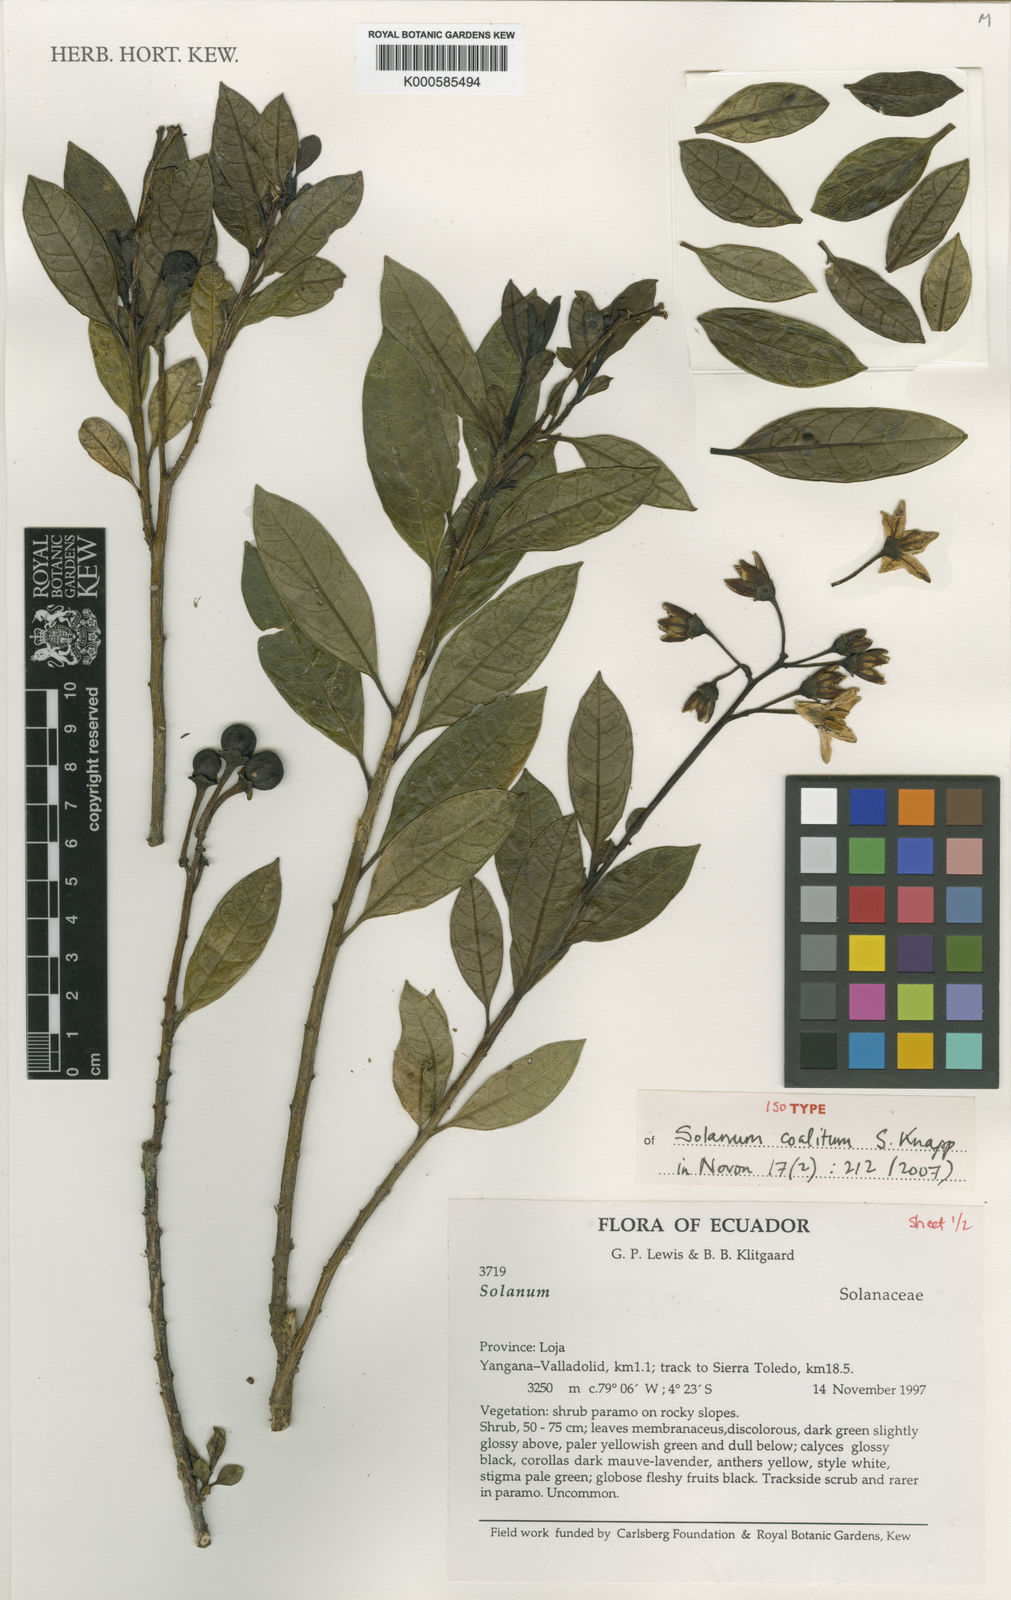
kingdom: Plantae
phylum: Tracheophyta
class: Magnoliopsida
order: Solanales
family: Solanaceae
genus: Solanum
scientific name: Solanum coalitum
